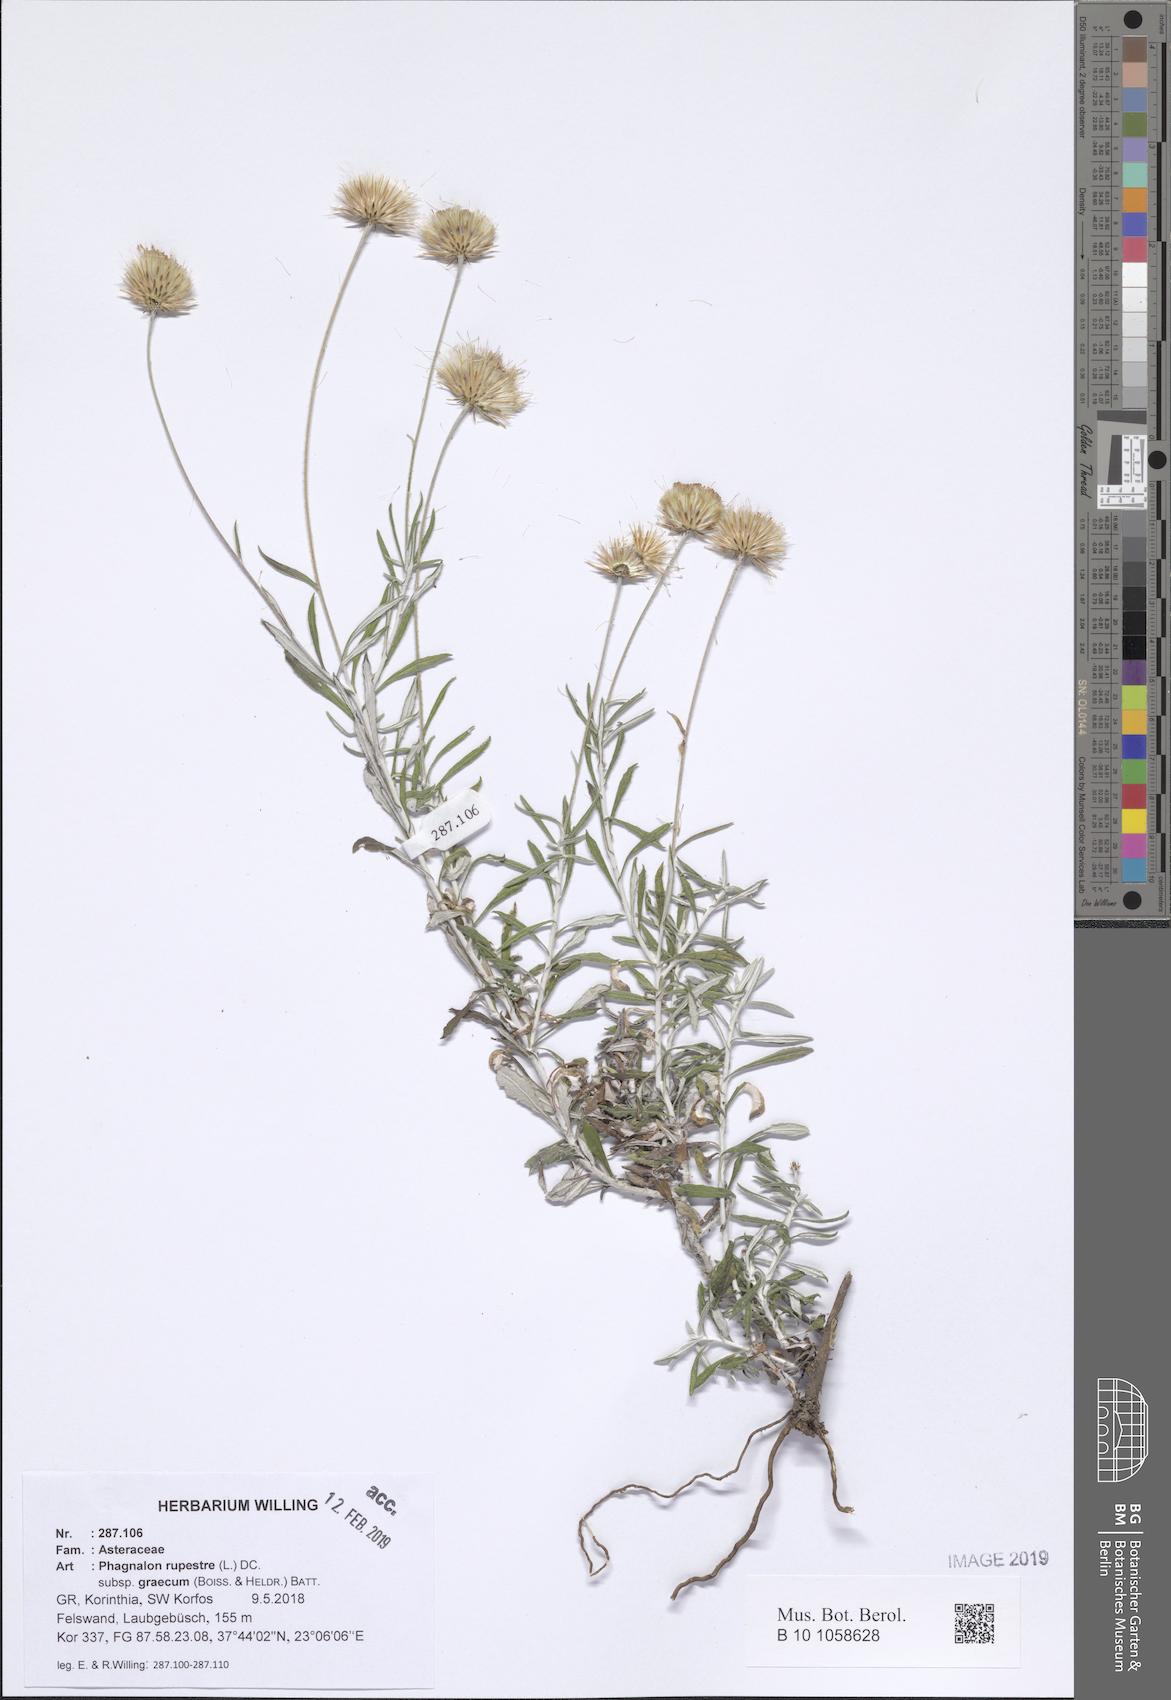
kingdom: Plantae
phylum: Tracheophyta
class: Magnoliopsida
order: Asterales
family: Asteraceae
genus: Phagnalon
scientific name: Phagnalon graecum
